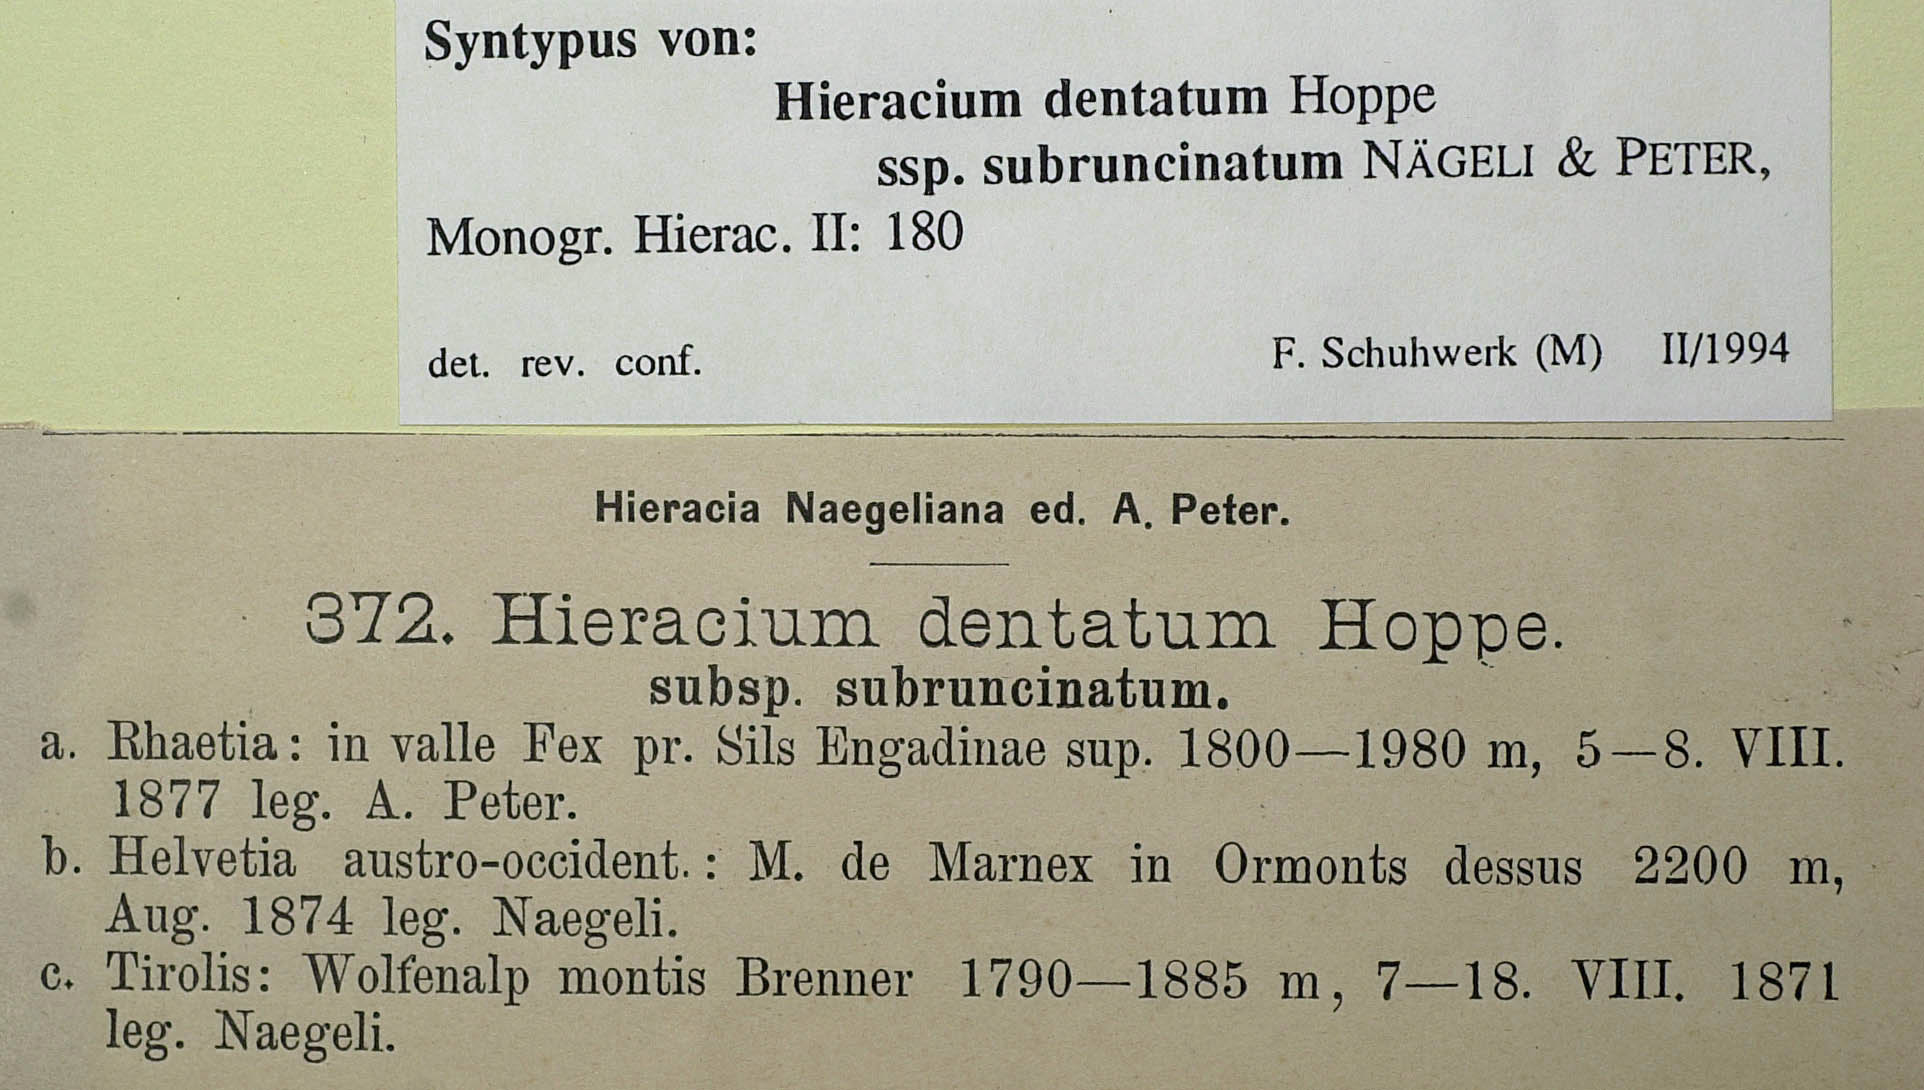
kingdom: Plantae
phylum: Tracheophyta
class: Magnoliopsida
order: Asterales
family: Asteraceae
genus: Hieracium
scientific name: Hieracium dentatum
